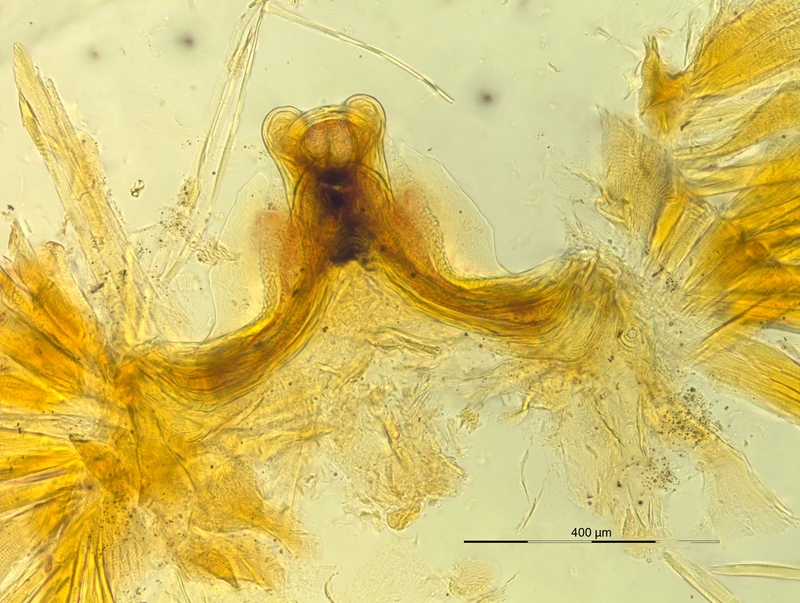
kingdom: Animalia
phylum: Arthropoda
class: Diplopoda
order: Chordeumatida
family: Craspedosomatidae
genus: Pyrgocyphosoma
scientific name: Pyrgocyphosoma longilamellatum
